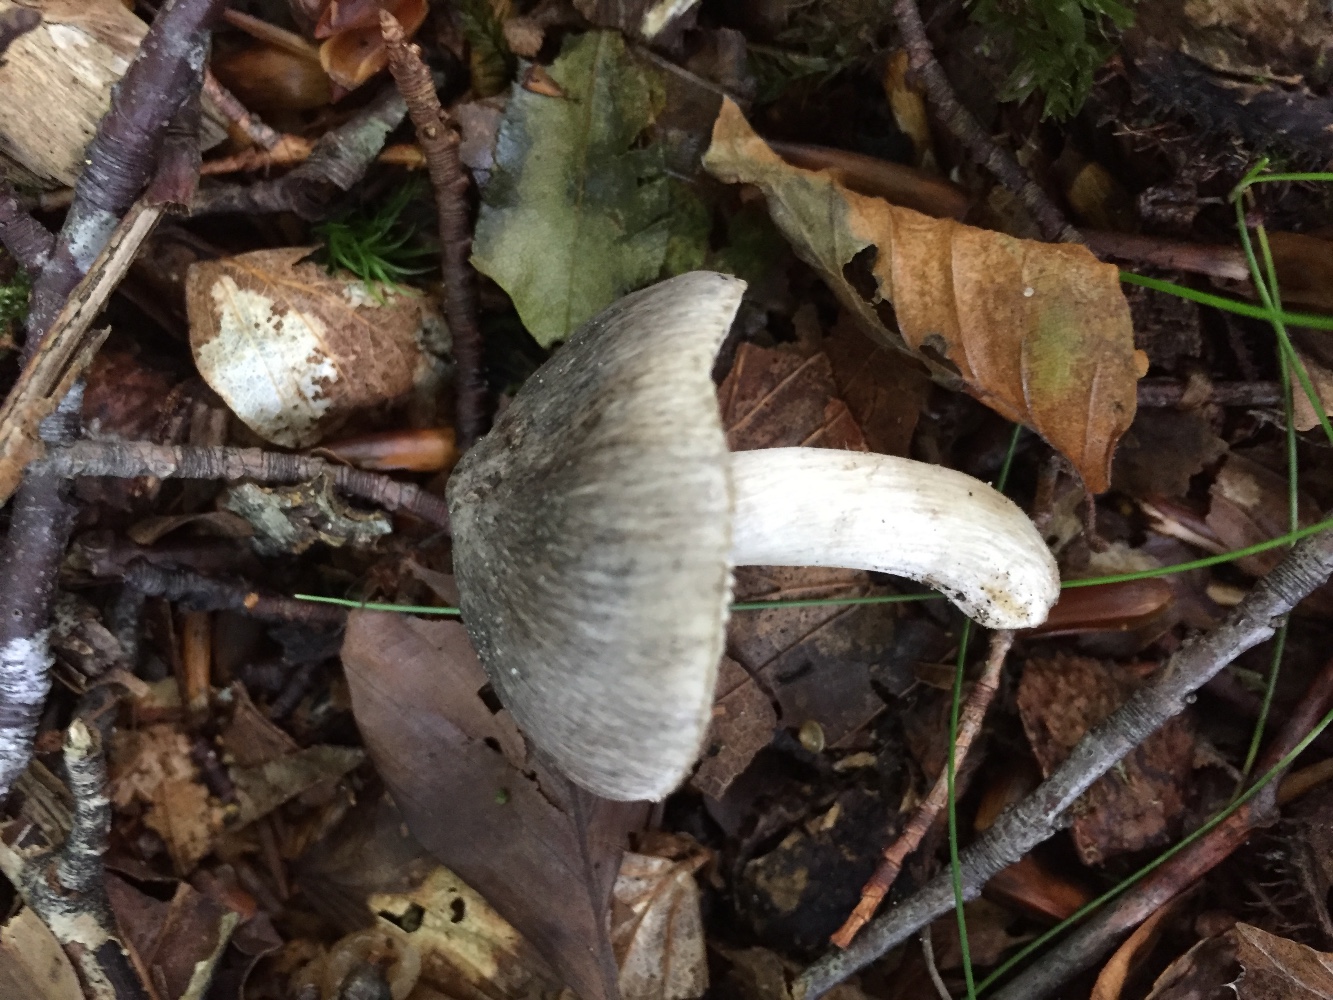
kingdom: Fungi
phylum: Basidiomycota
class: Agaricomycetes
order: Agaricales
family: Tricholomataceae
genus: Tricholoma
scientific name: Tricholoma sciodes
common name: stribet ridderhat
